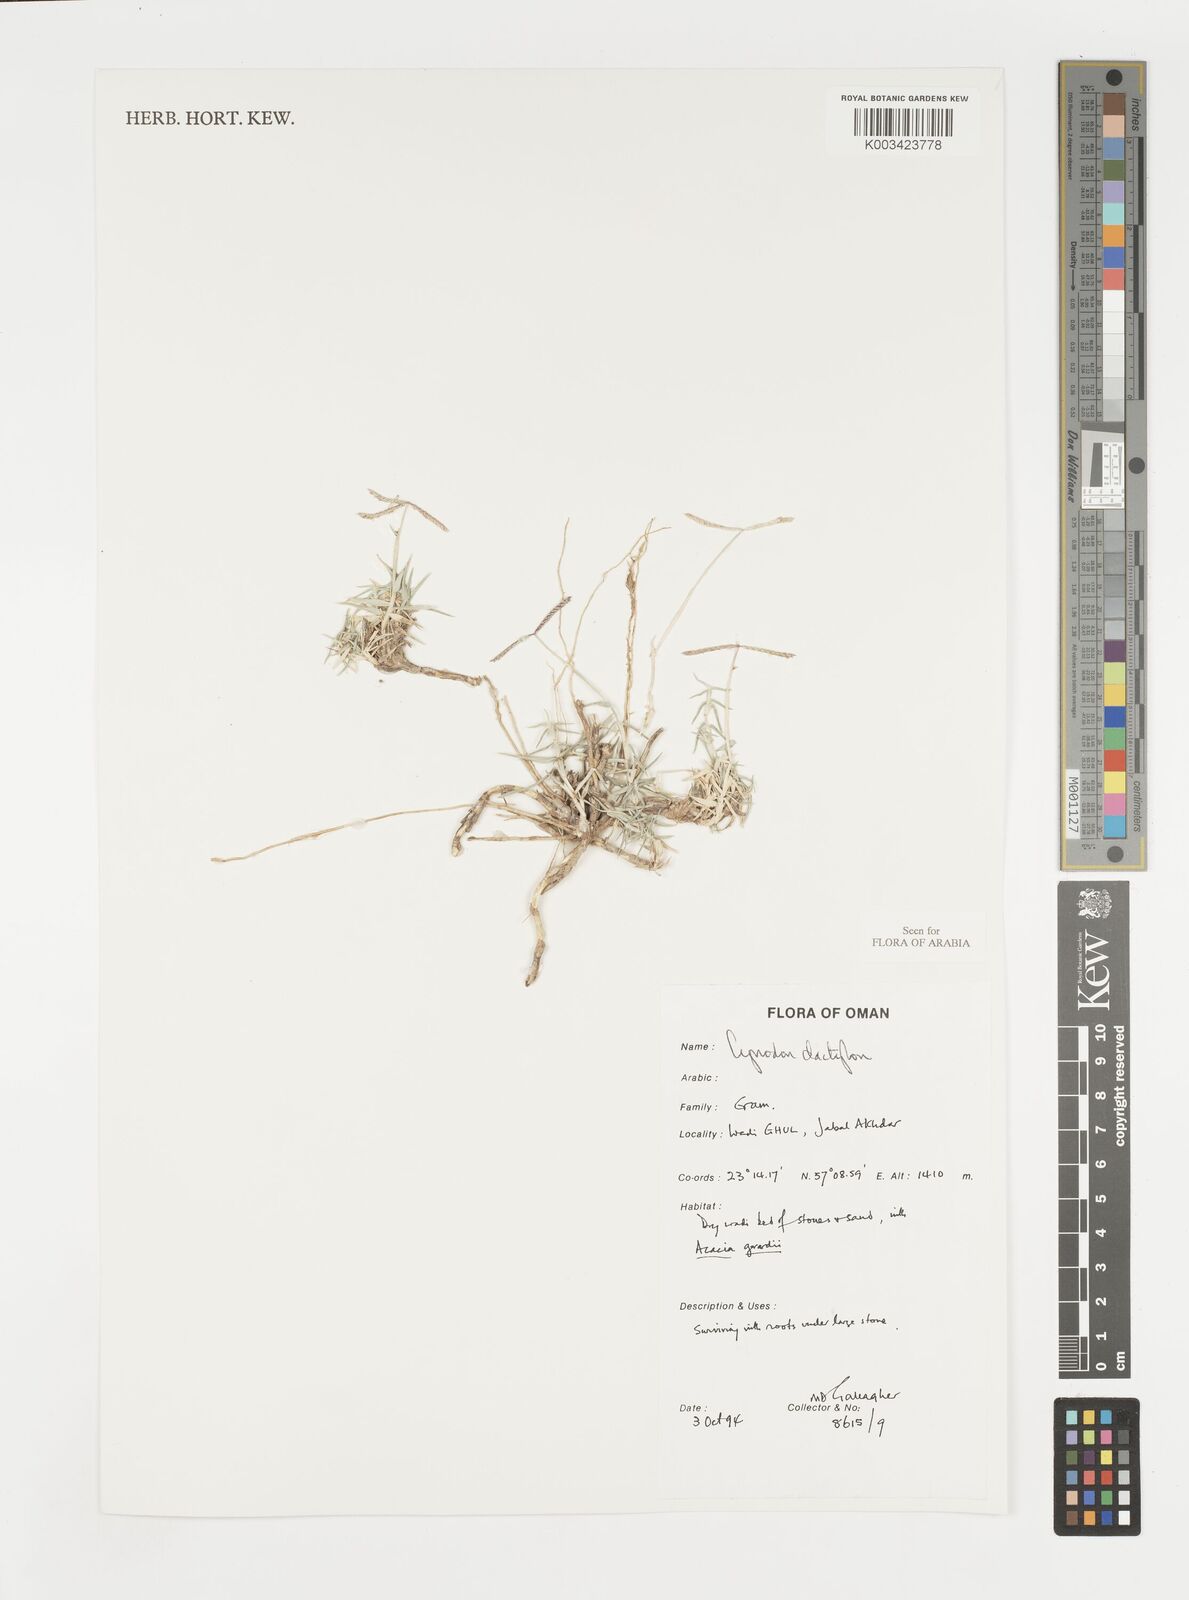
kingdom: Plantae
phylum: Tracheophyta
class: Liliopsida
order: Poales
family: Poaceae
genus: Cynodon
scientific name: Cynodon dactylon
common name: Bermuda grass
